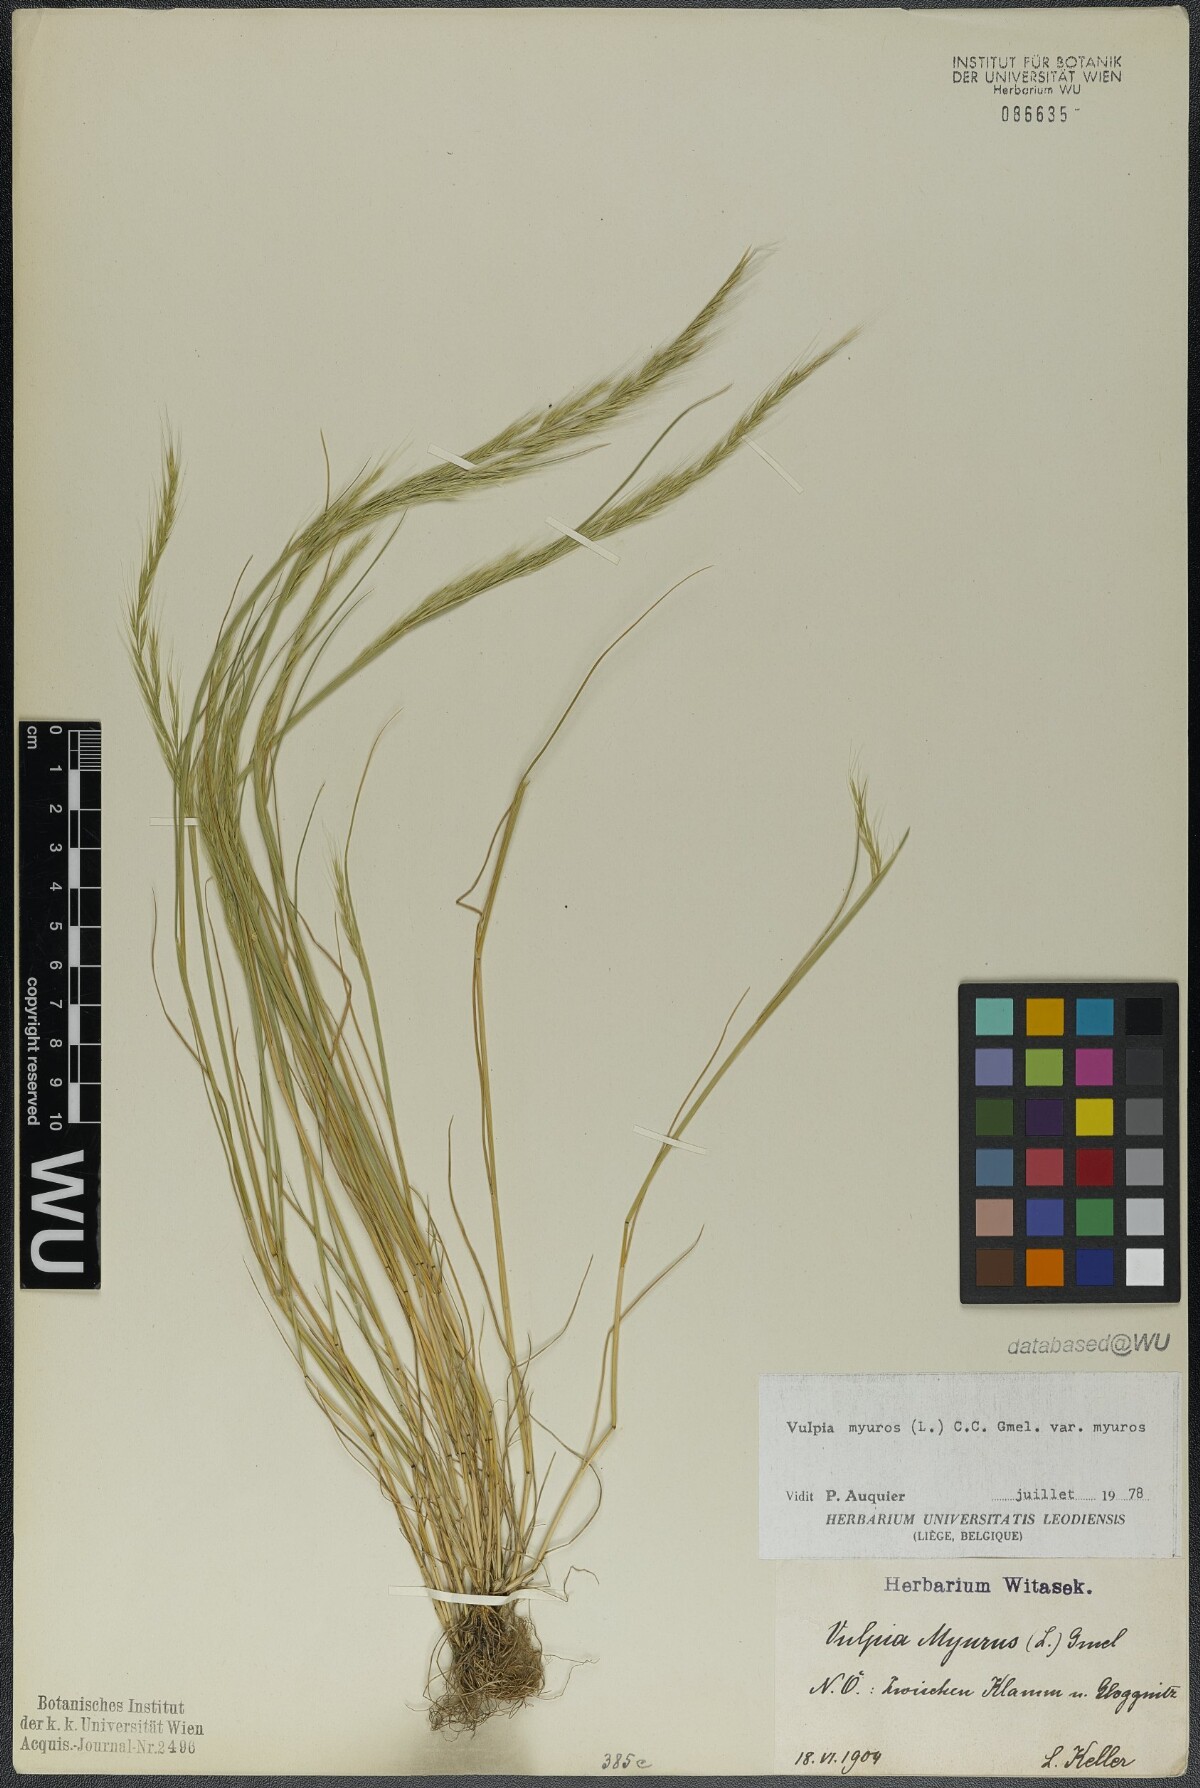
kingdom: Plantae
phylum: Tracheophyta
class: Liliopsida
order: Poales
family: Poaceae
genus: Festuca
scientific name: Festuca myuros
